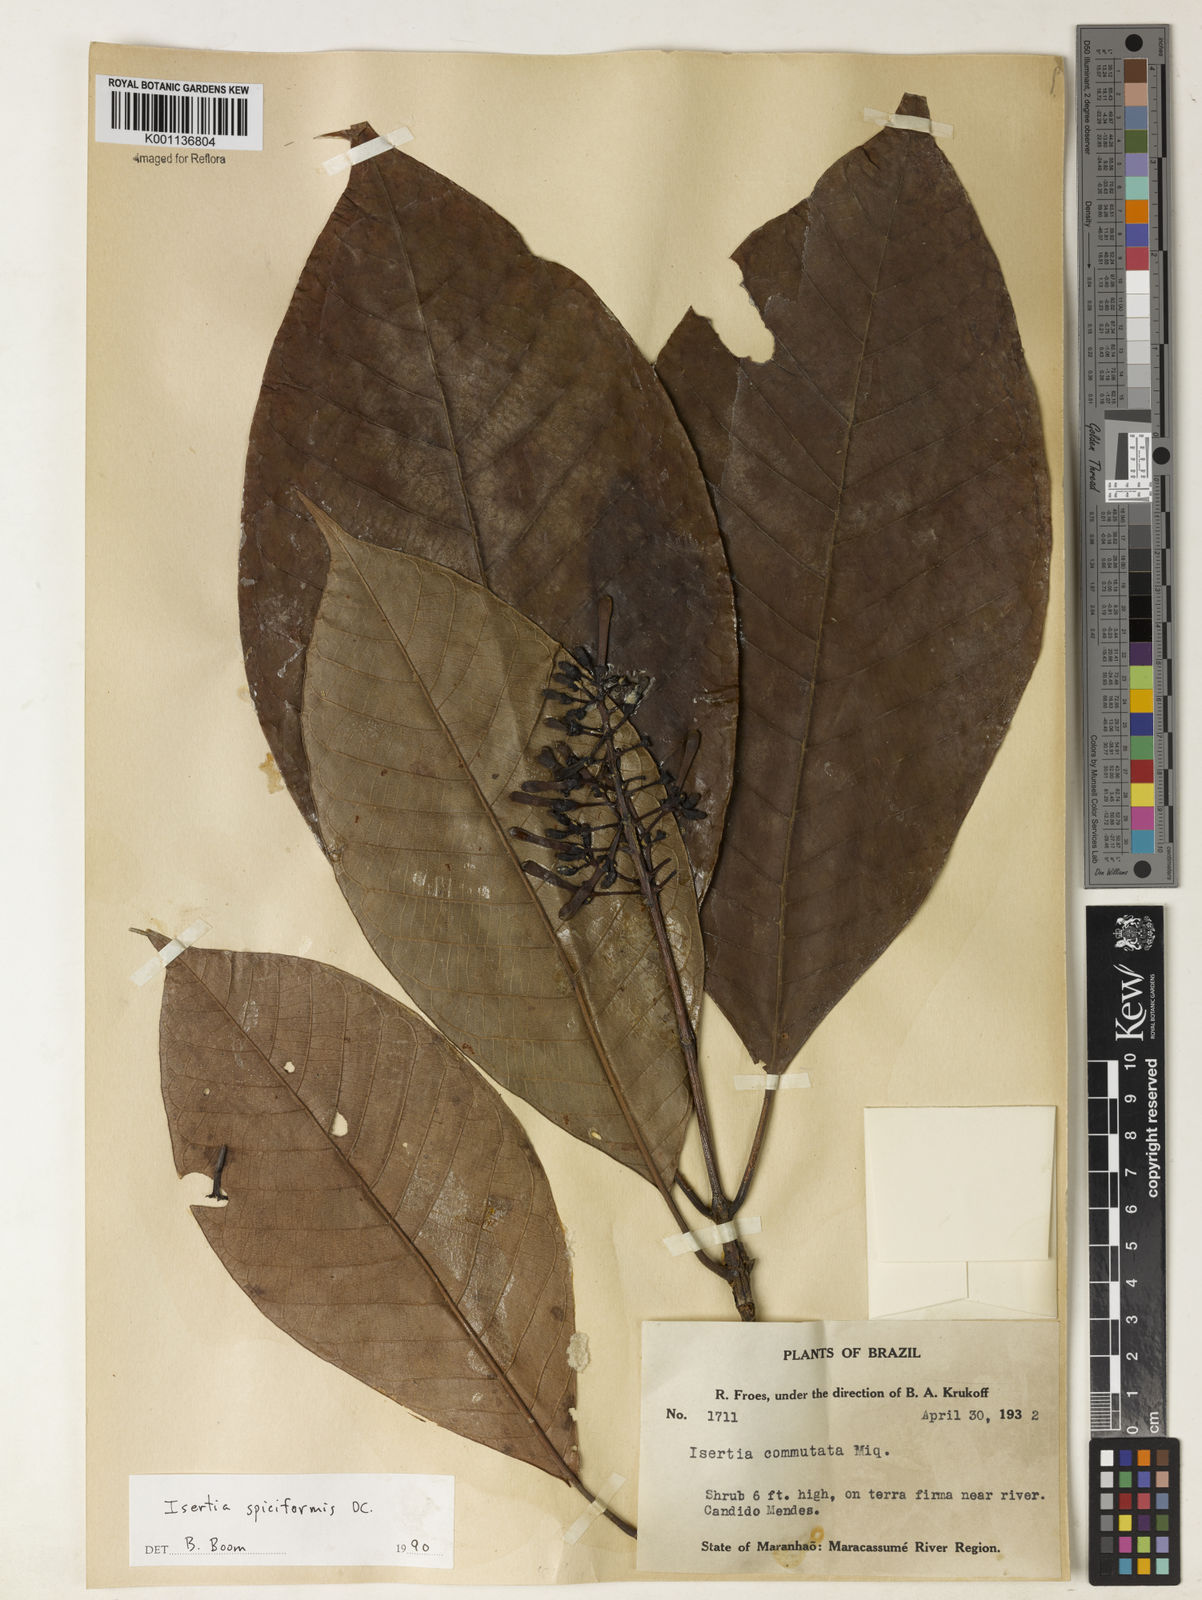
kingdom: Plantae
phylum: Tracheophyta
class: Magnoliopsida
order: Gentianales
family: Rubiaceae
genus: Isertia
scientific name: Isertia spiciformis
